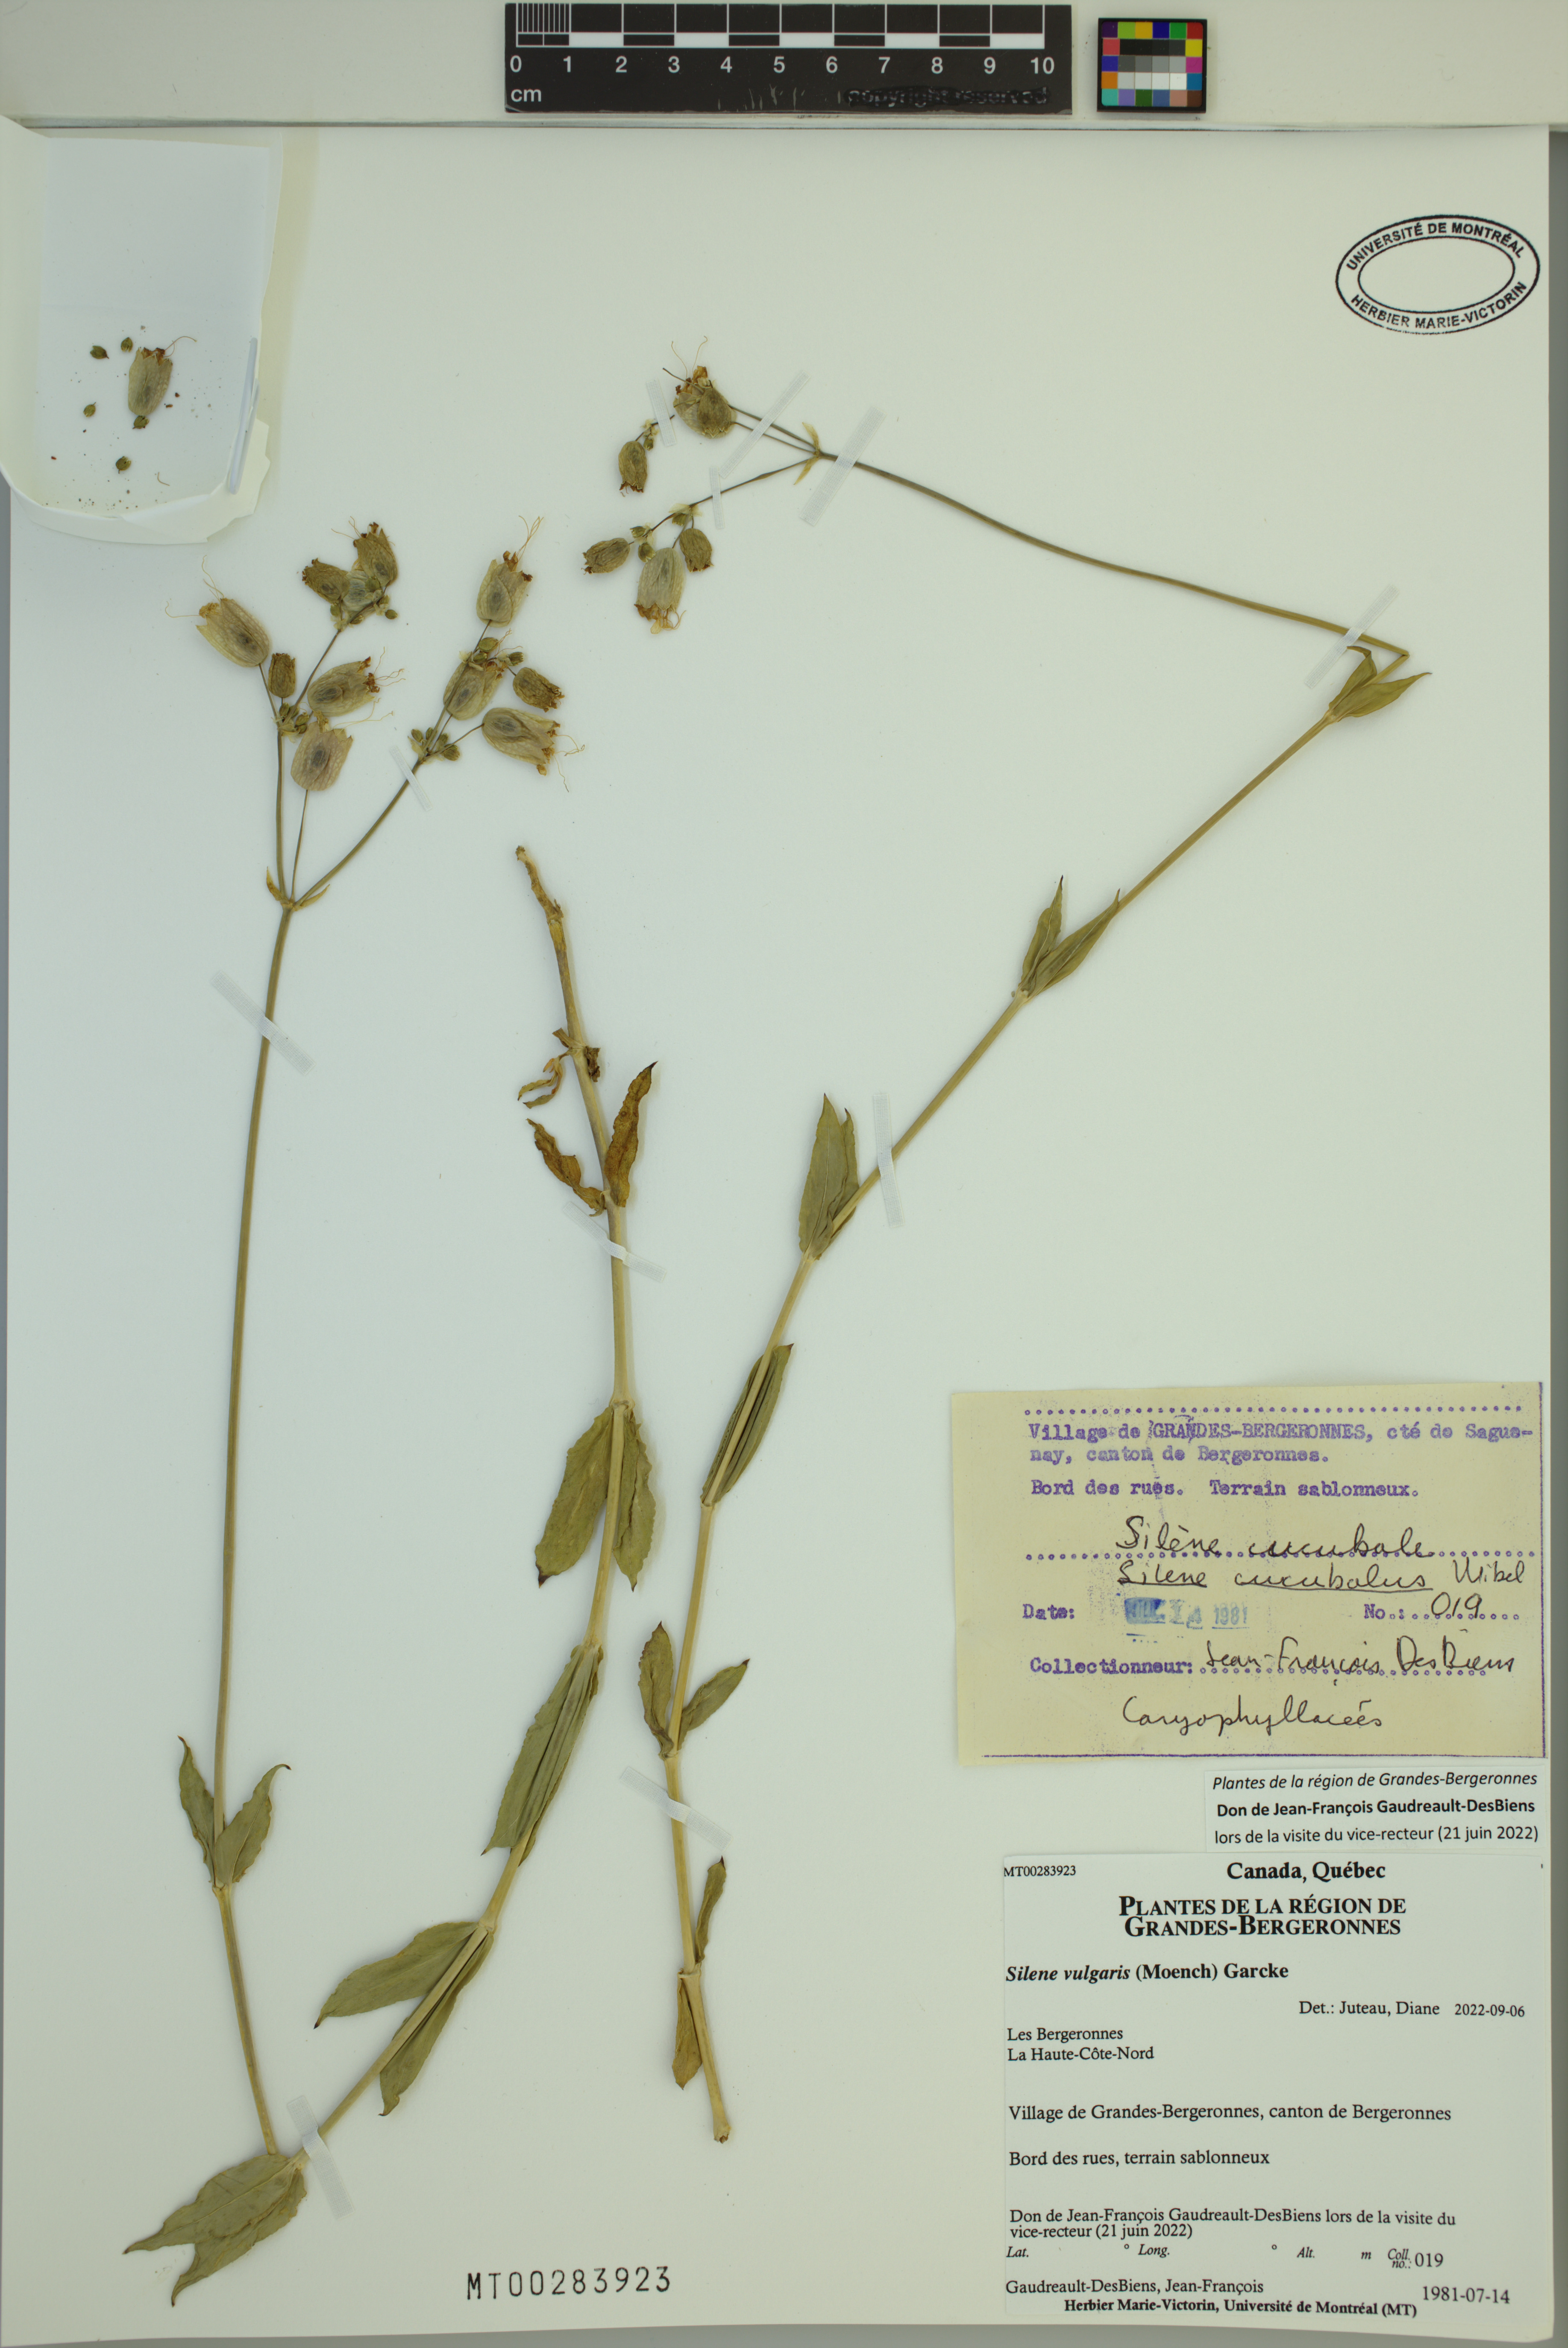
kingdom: Plantae
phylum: Tracheophyta
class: Magnoliopsida
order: Caryophyllales
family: Caryophyllaceae
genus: Silene
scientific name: Silene vulgaris
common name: Bladder campion
